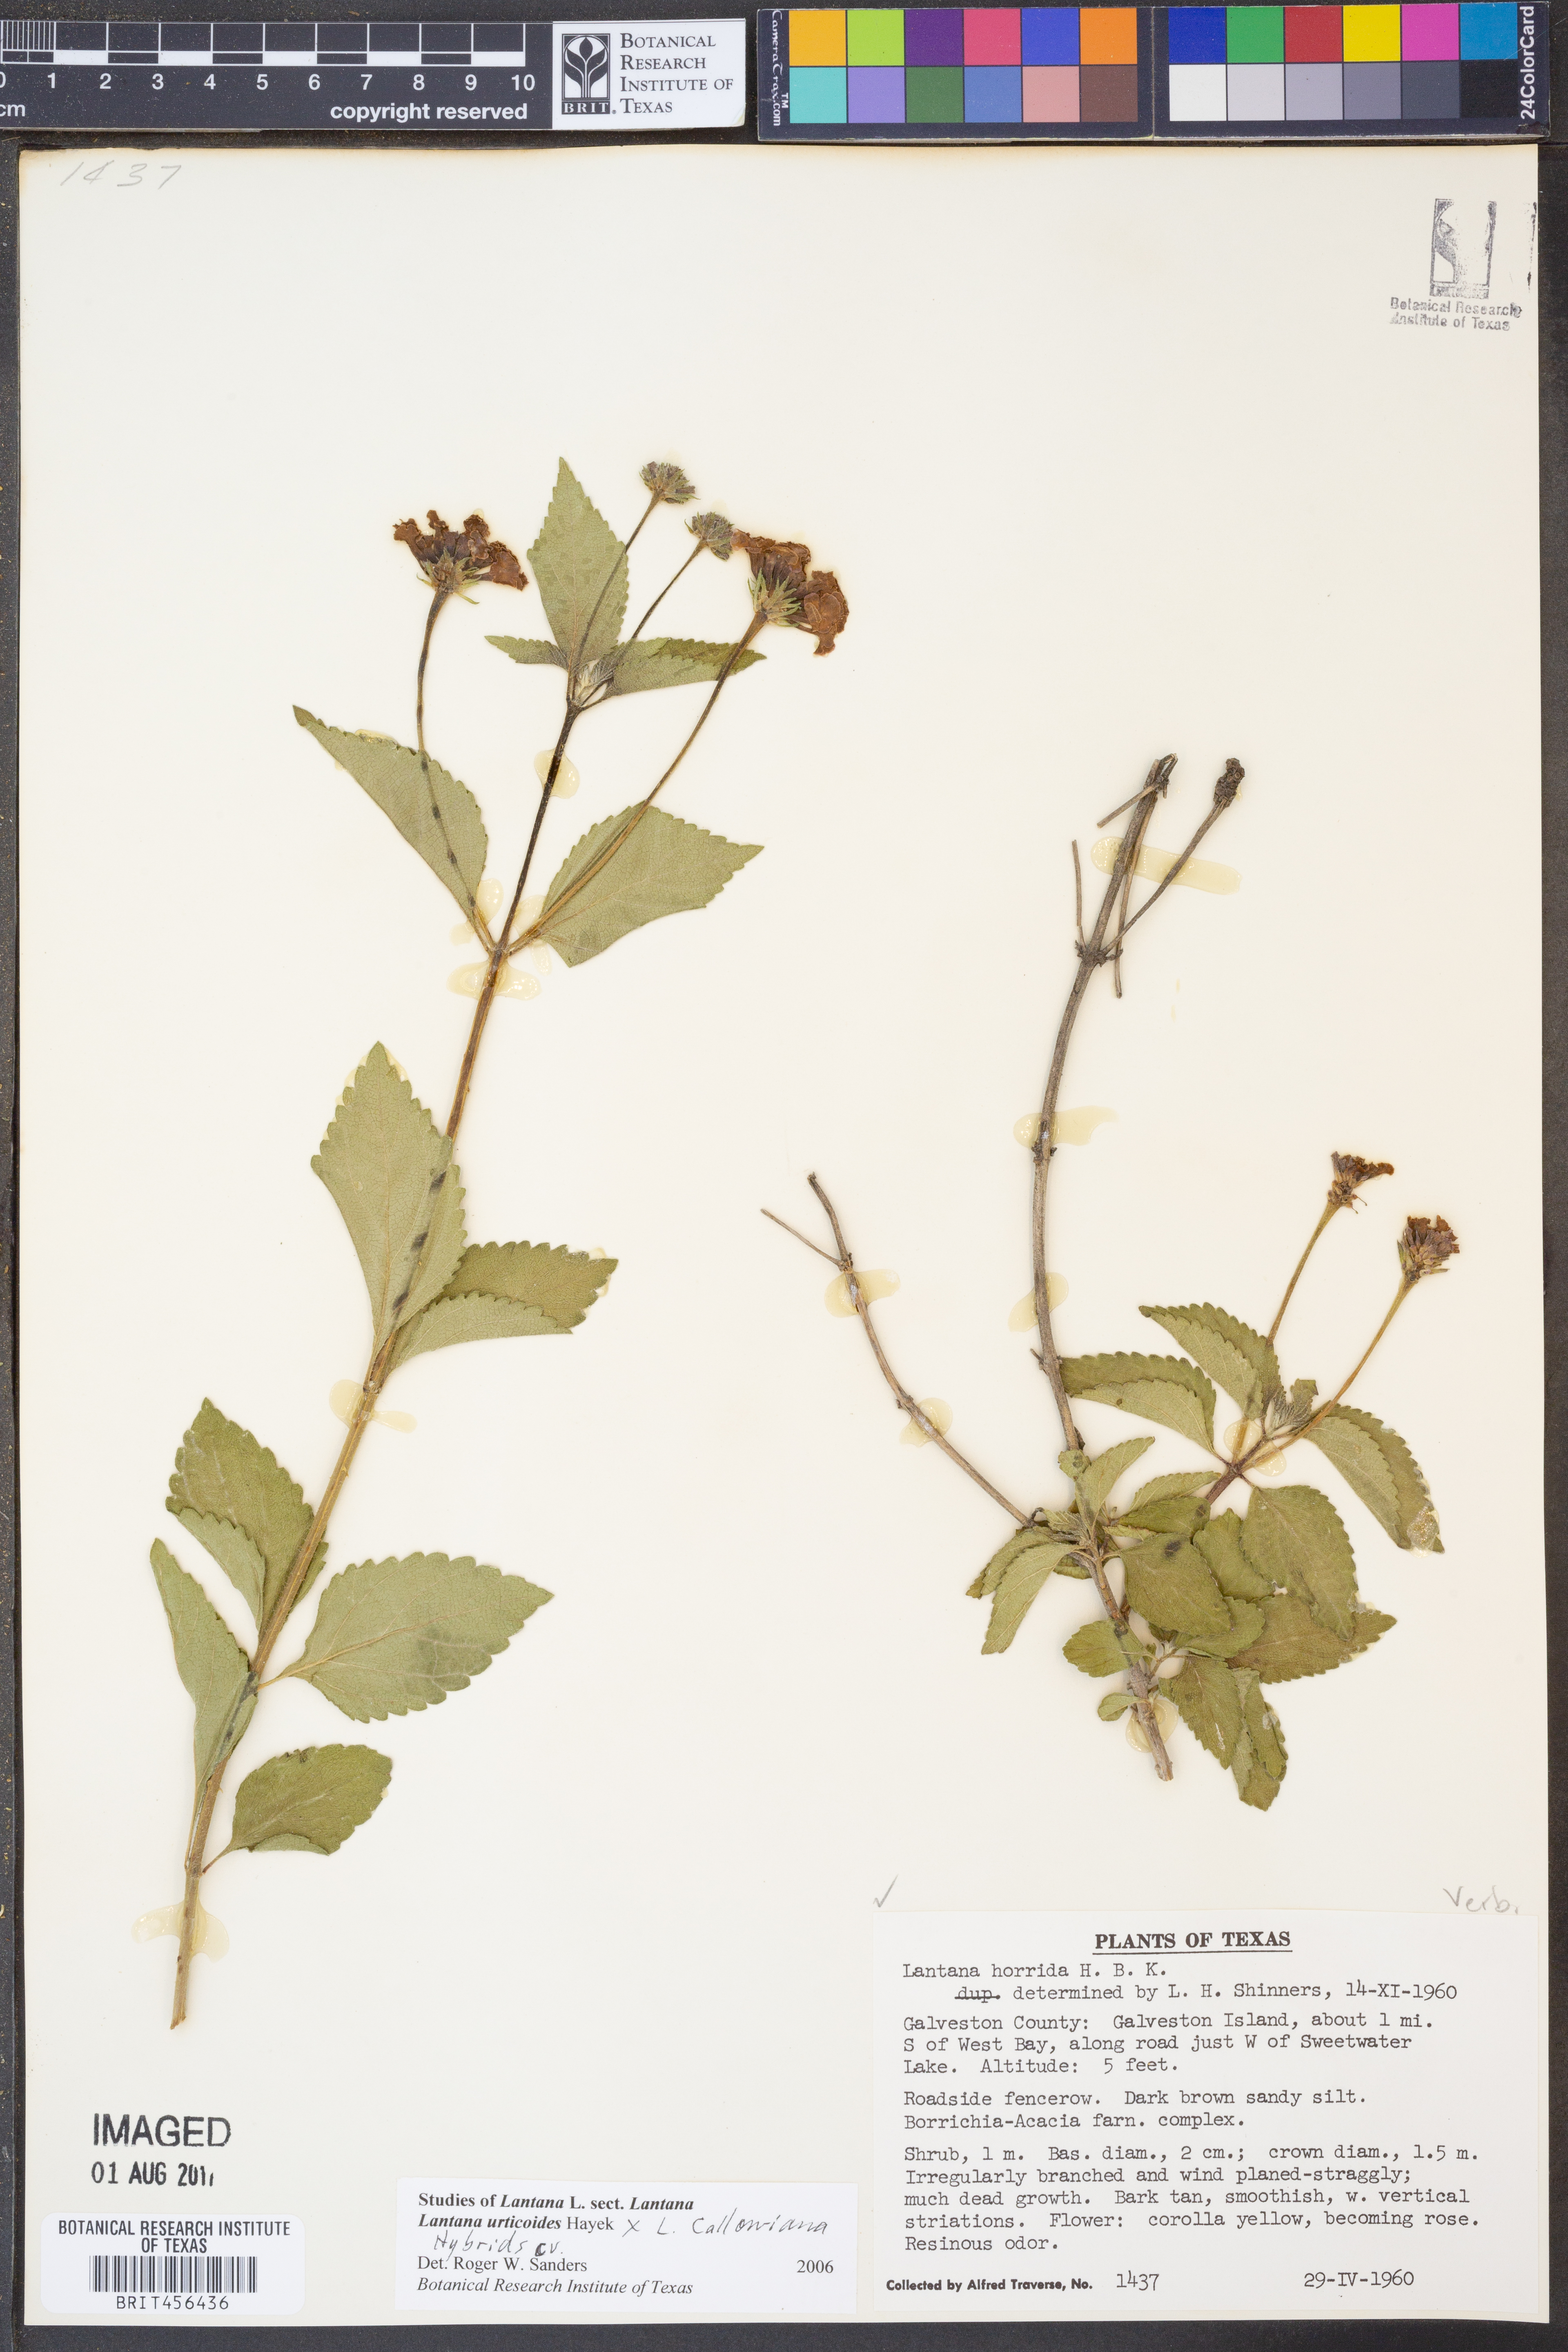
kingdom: Plantae
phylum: Tracheophyta
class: Magnoliopsida
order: Lamiales
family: Verbenaceae
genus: Lantana
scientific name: Lantana urticoides
